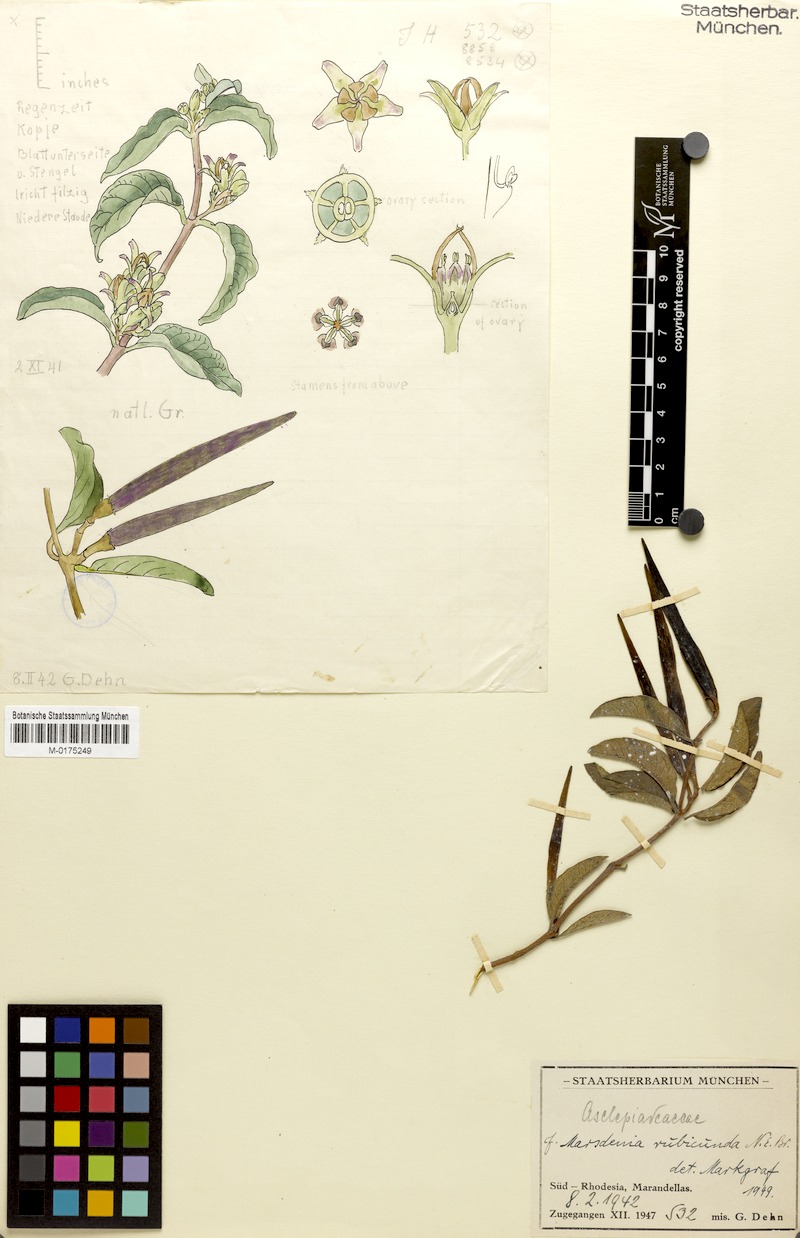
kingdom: Plantae
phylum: Tracheophyta
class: Magnoliopsida
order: Gentianales
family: Apocynaceae
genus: Stephanotis
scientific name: Stephanotis rubicunda
